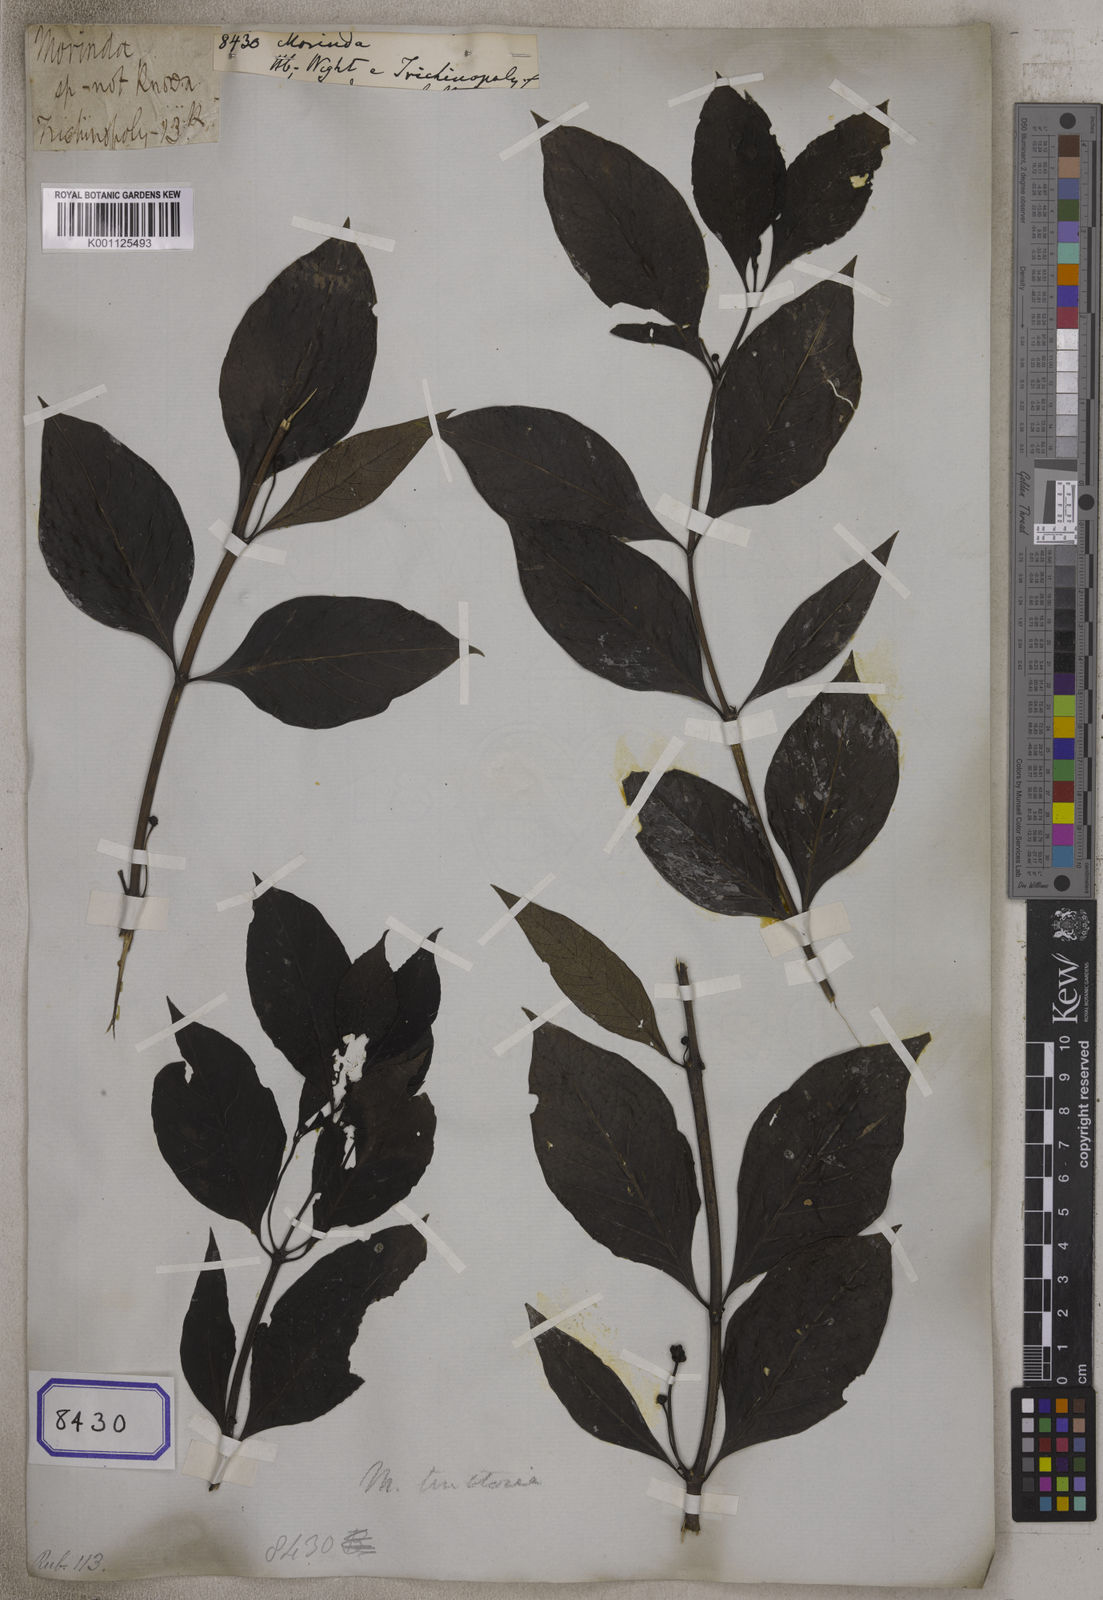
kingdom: Plantae
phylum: Tracheophyta
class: Magnoliopsida
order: Gentianales
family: Rubiaceae
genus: Morinda
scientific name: Morinda
